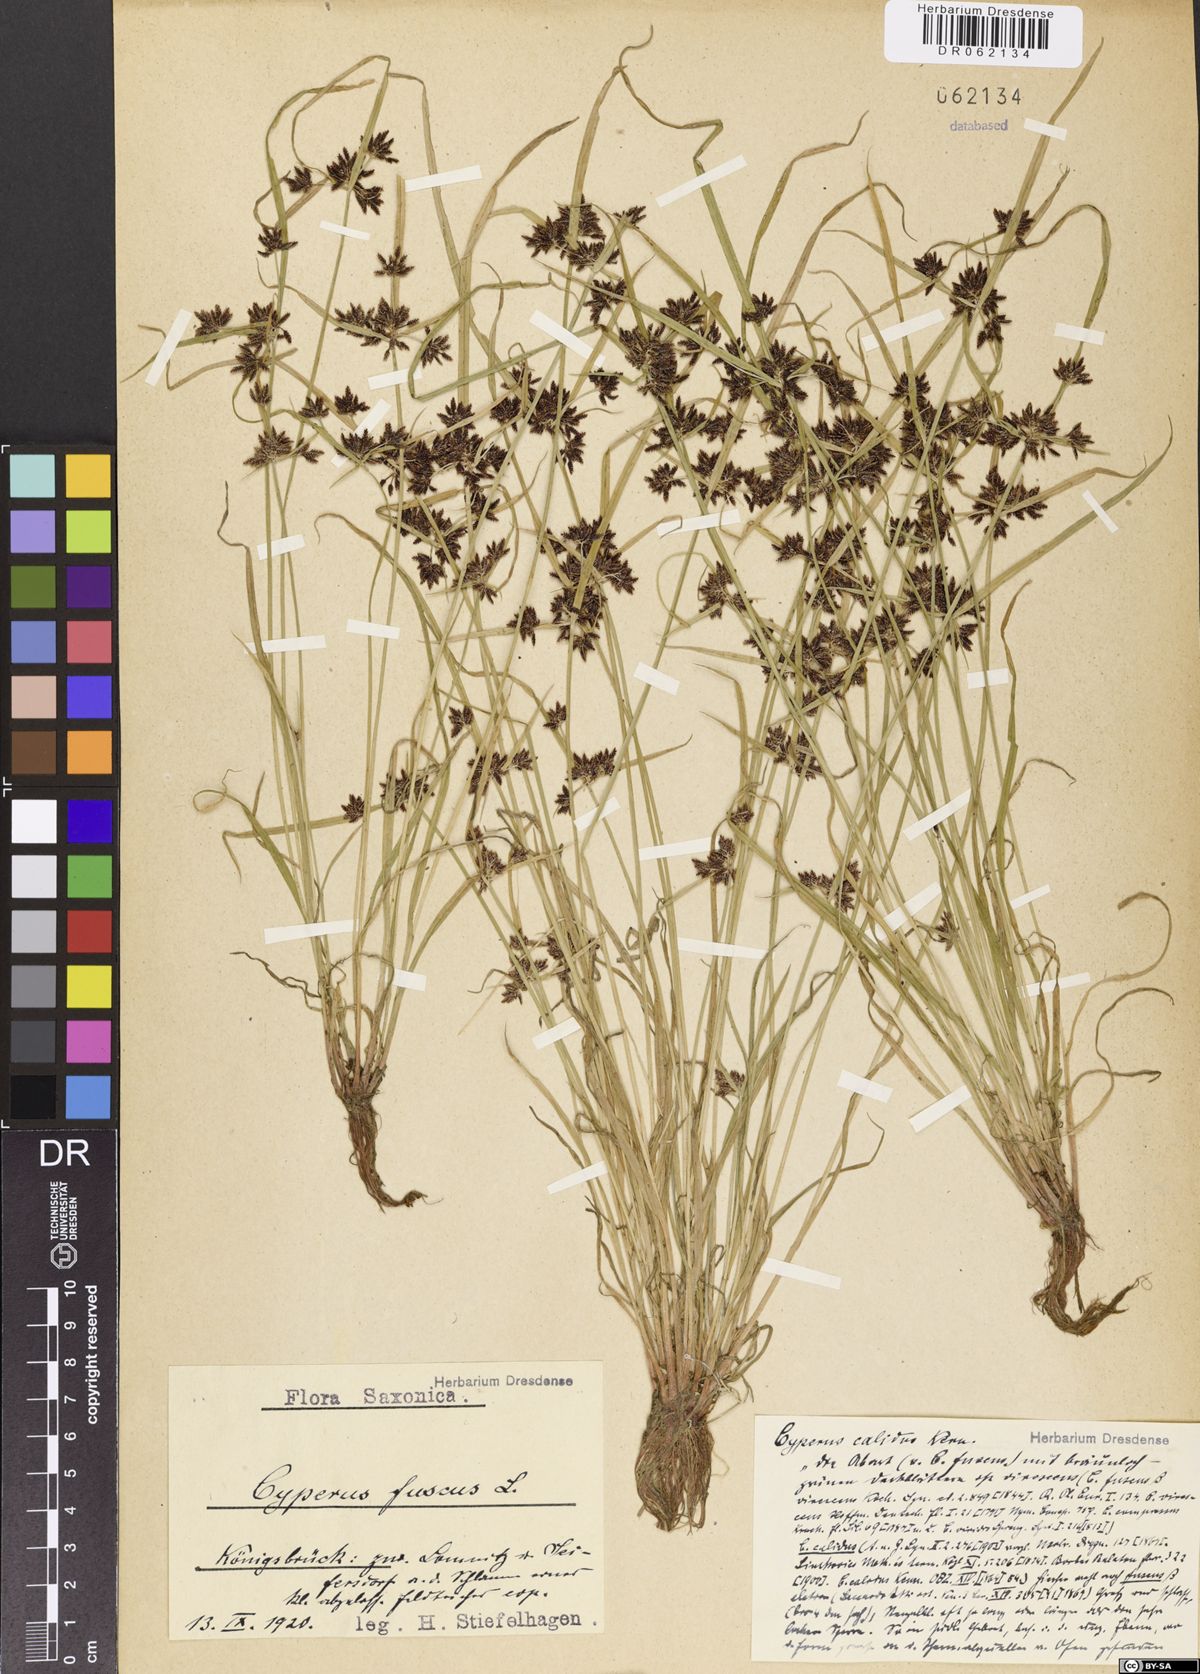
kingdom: Plantae
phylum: Tracheophyta
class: Liliopsida
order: Poales
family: Cyperaceae
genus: Cyperus
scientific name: Cyperus fuscus
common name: Brown galingale
